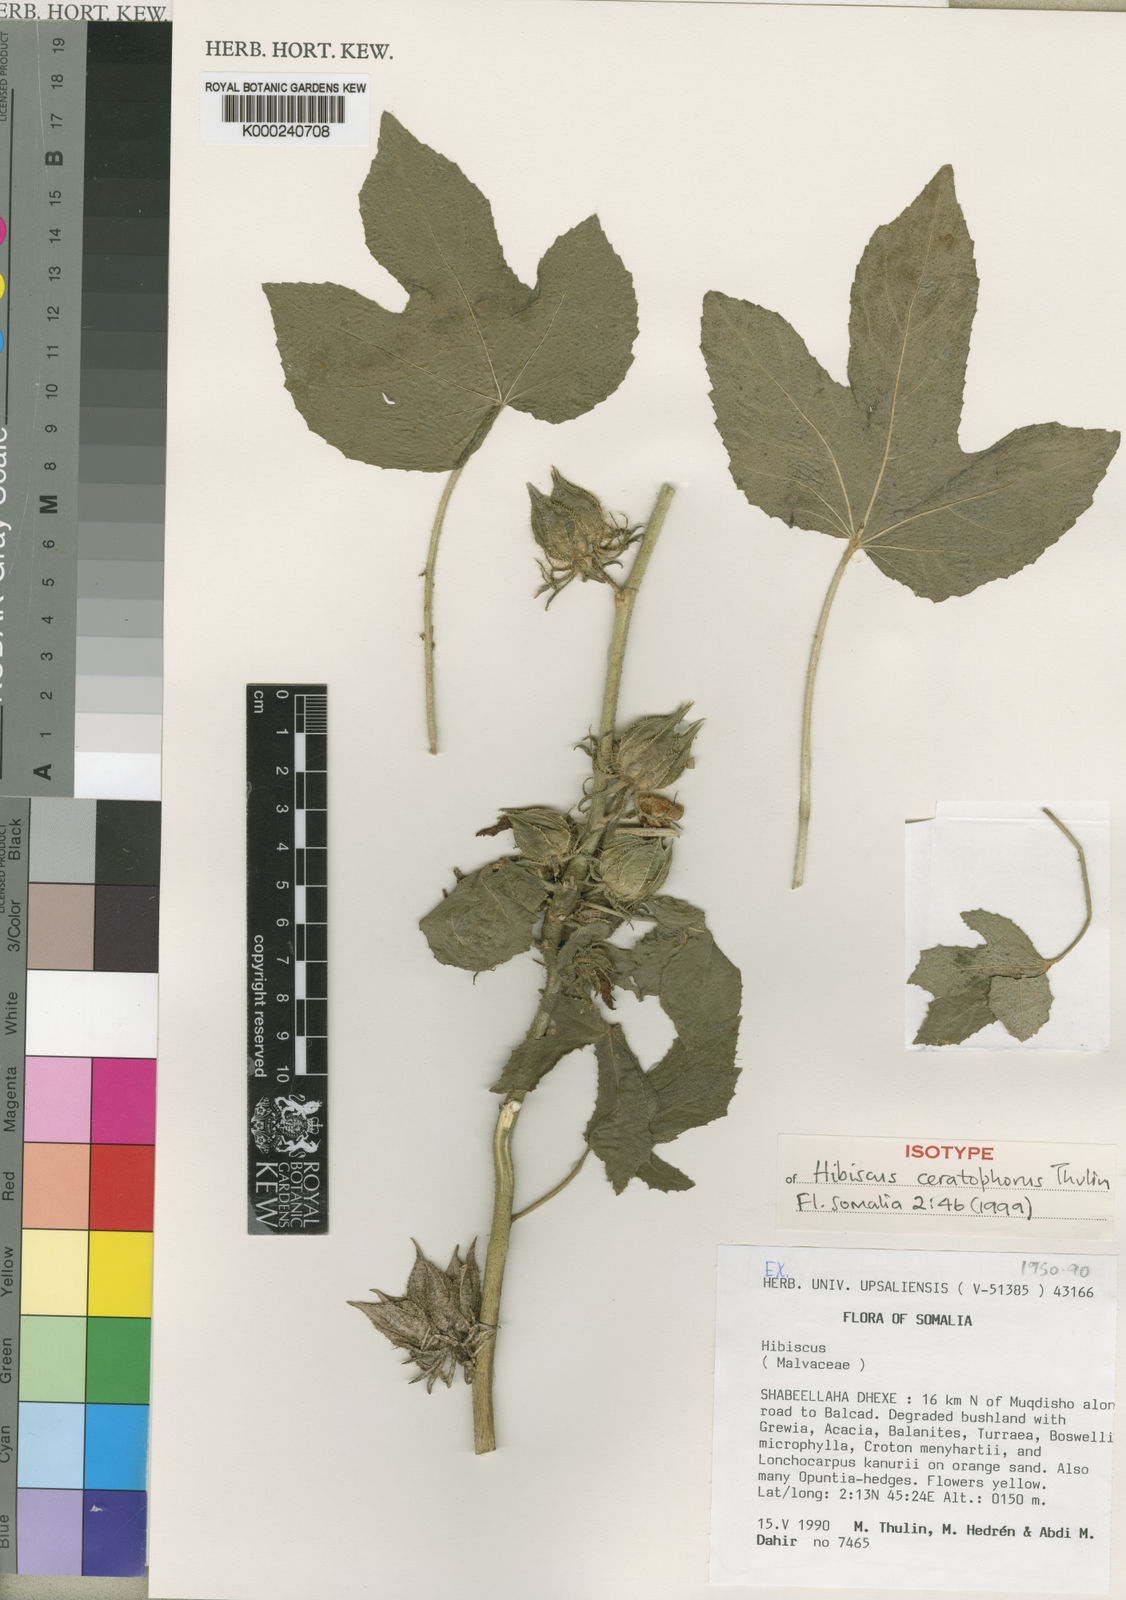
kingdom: Plantae
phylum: Tracheophyta
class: Magnoliopsida
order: Malvales
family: Malvaceae
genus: Hibiscus
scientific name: Hibiscus ceratophorus
